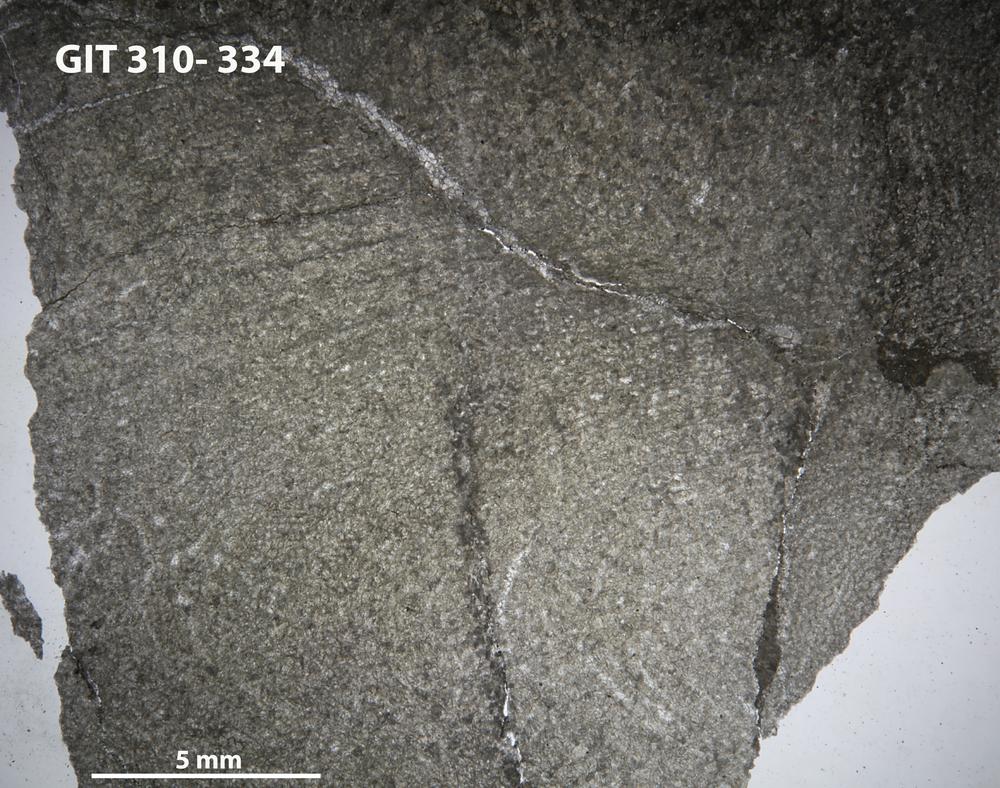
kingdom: Animalia
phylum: Porifera
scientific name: Porifera
